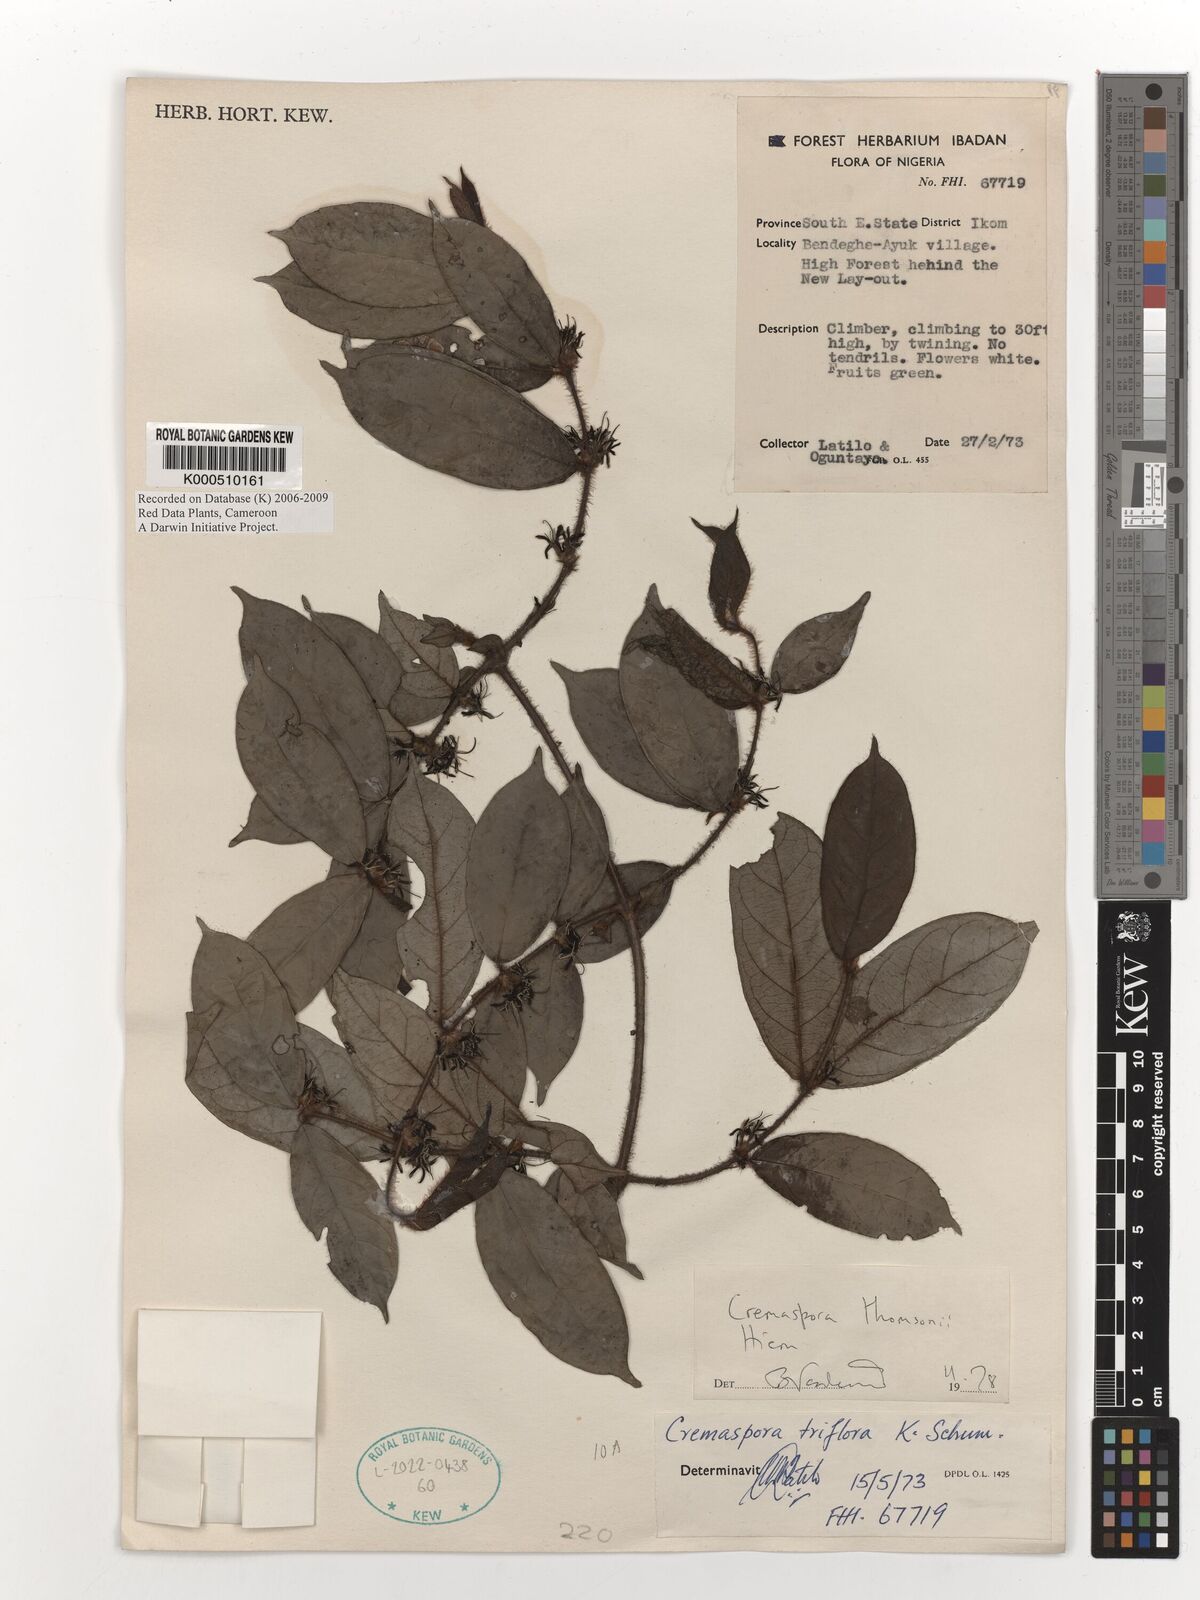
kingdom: Plantae
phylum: Tracheophyta
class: Magnoliopsida
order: Gentianales
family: Rubiaceae
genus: Cremaspora
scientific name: Cremaspora thomsonii
